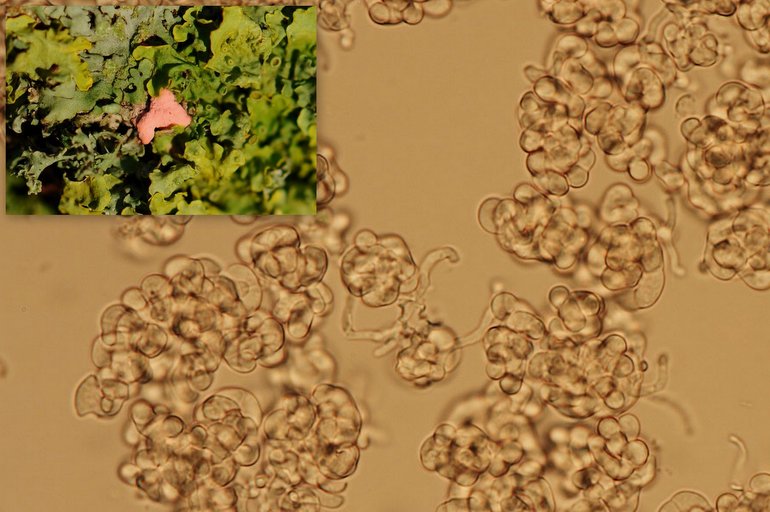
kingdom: Fungi
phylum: Ascomycota
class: Sordariomycetes
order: Hypocreales
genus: Illosporiopsis
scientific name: Illosporiopsis christiansenii
